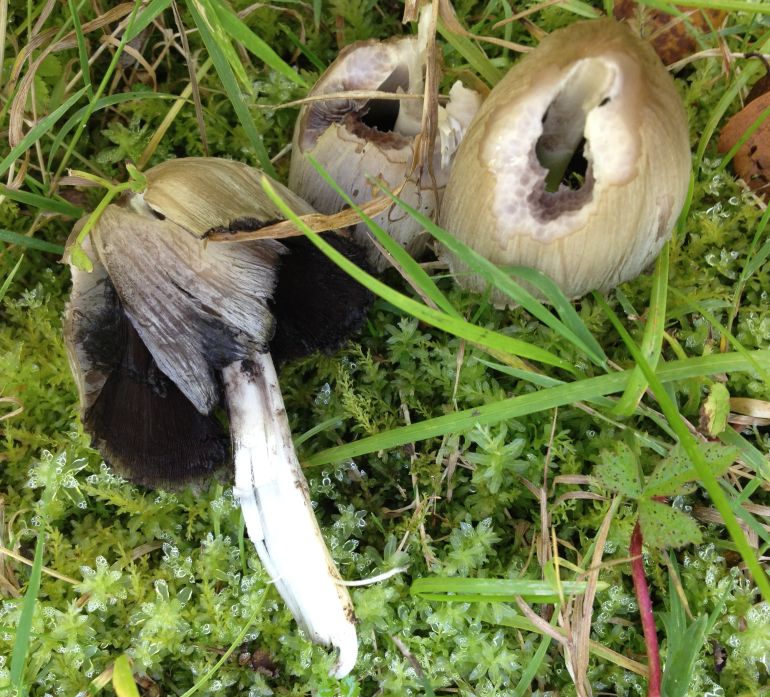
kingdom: Fungi
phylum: Basidiomycota
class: Agaricomycetes
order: Agaricales
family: Psathyrellaceae
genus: Coprinopsis
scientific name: Coprinopsis atramentaria
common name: almindelig blækhat
